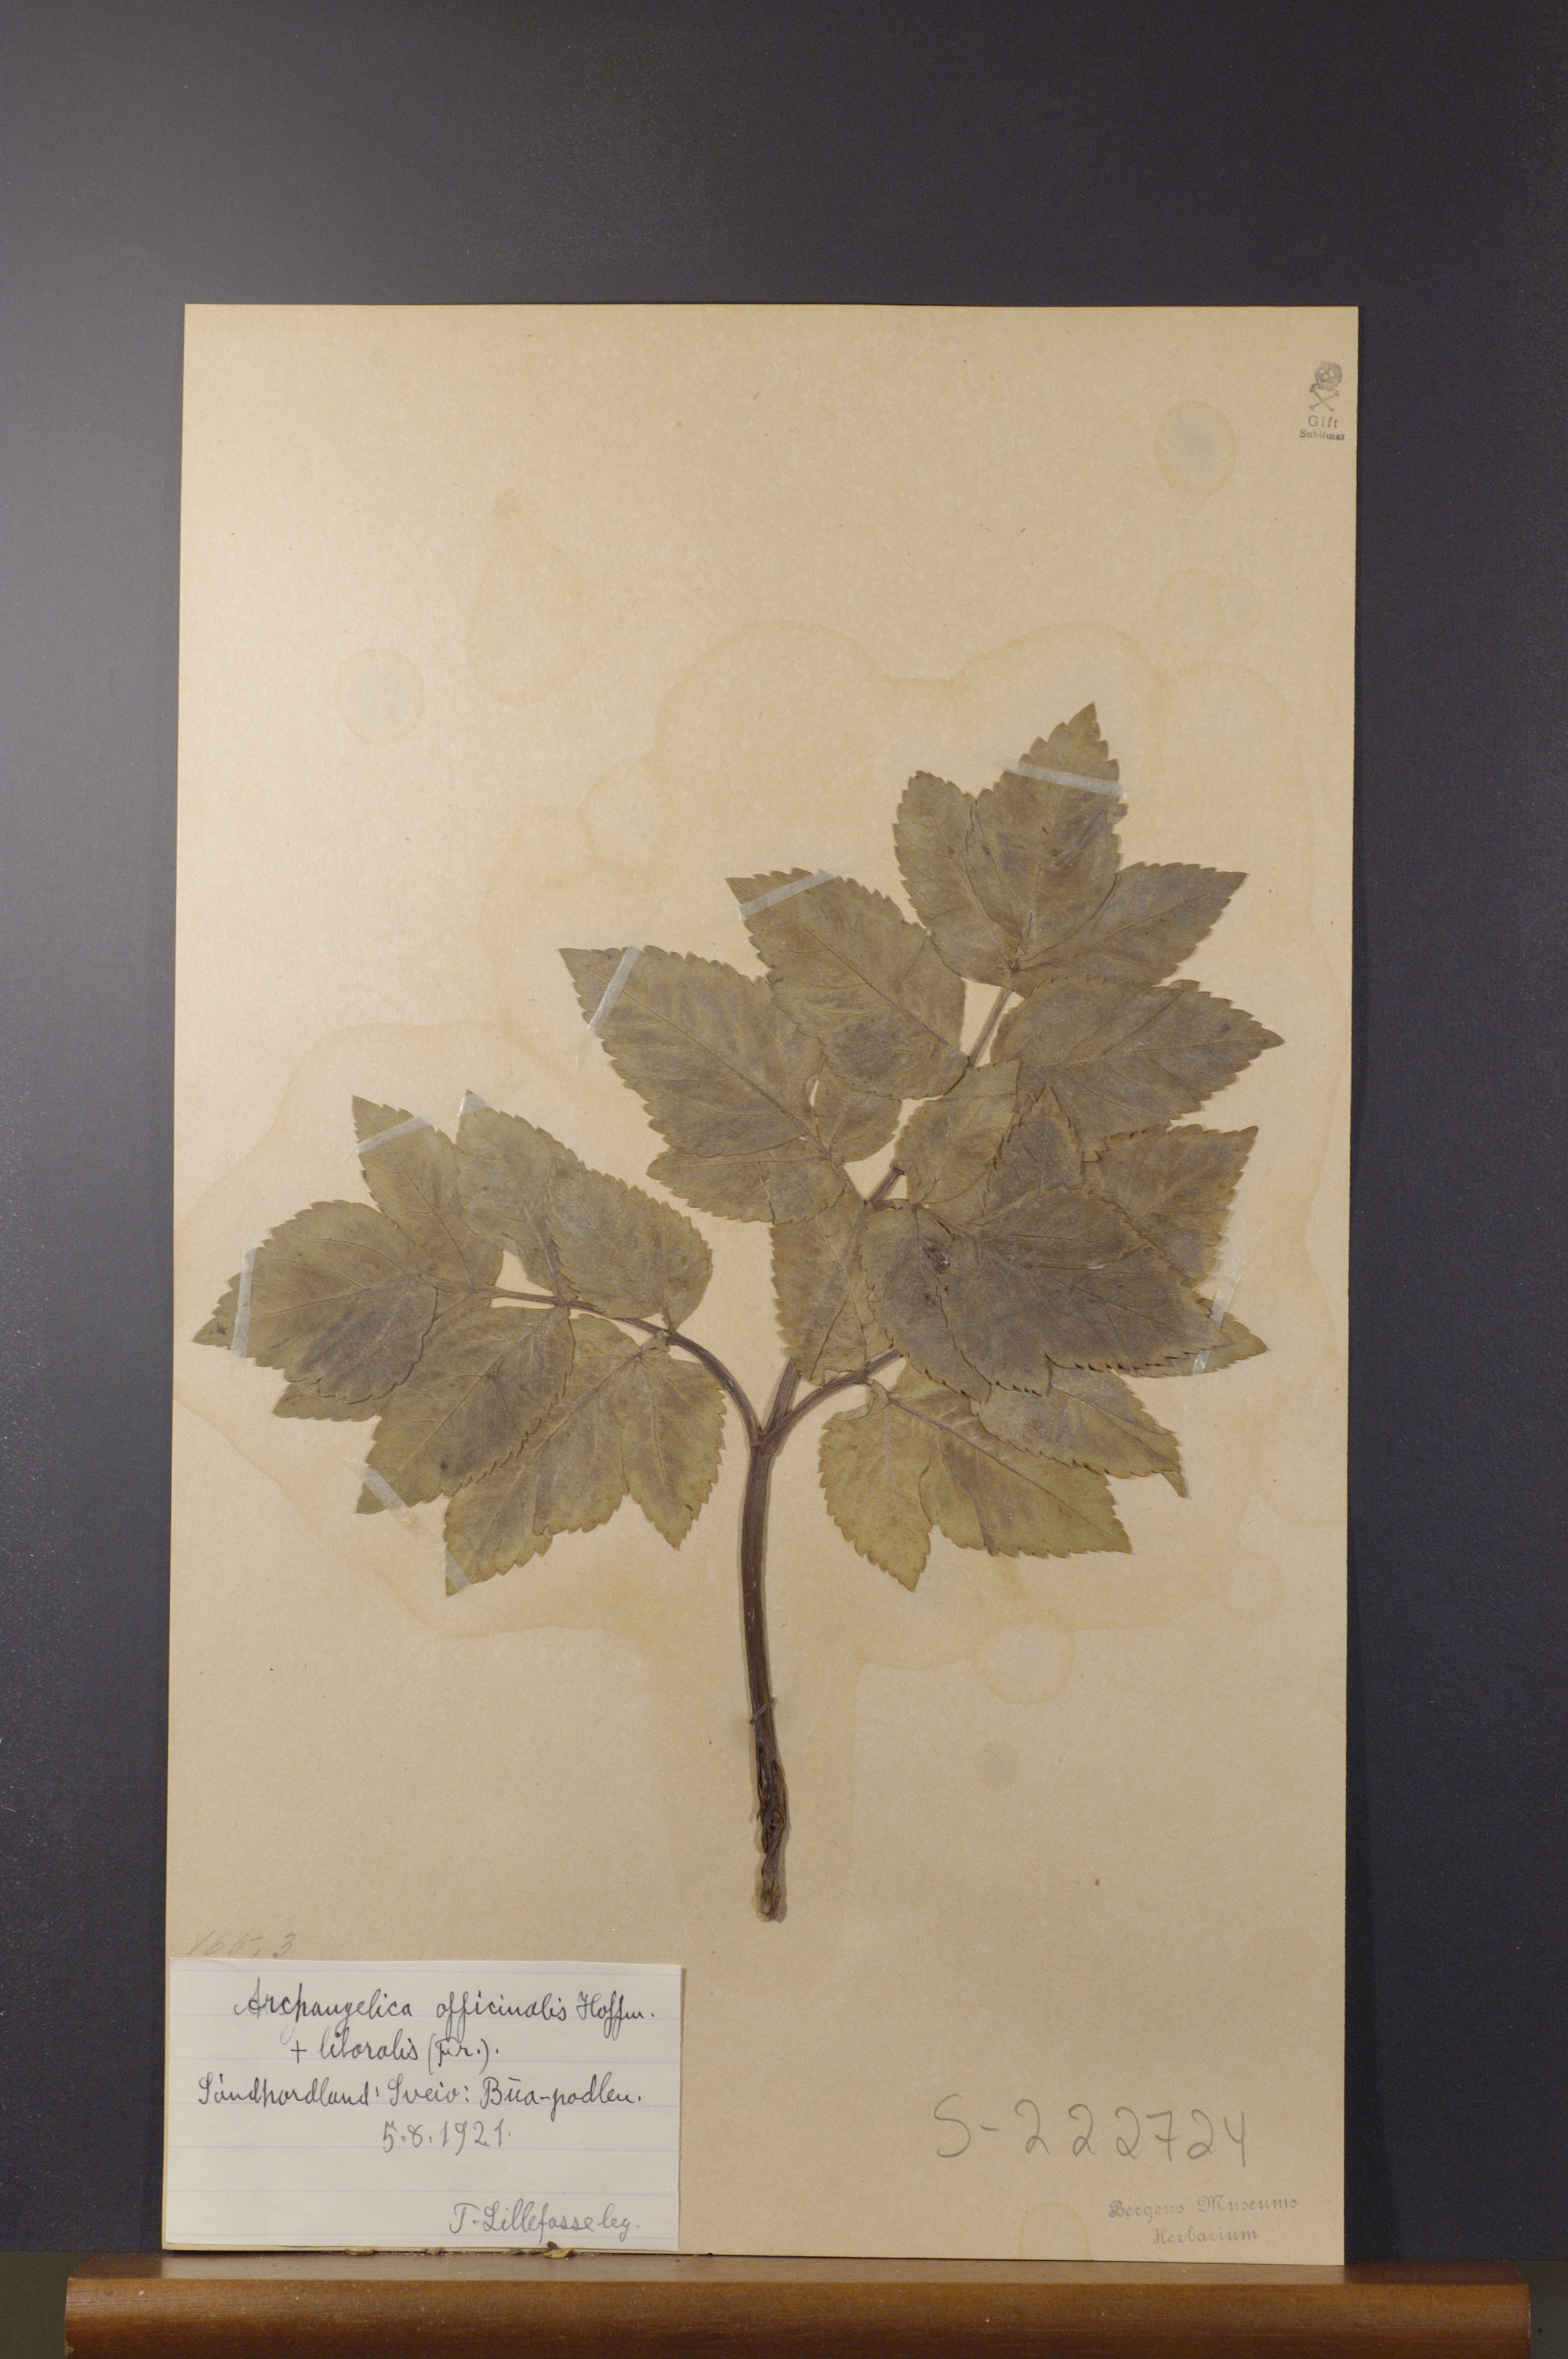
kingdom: Plantae
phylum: Tracheophyta
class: Magnoliopsida
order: Apiales
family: Apiaceae
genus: Angelica
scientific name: Angelica archangelica
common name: Garden angelica
